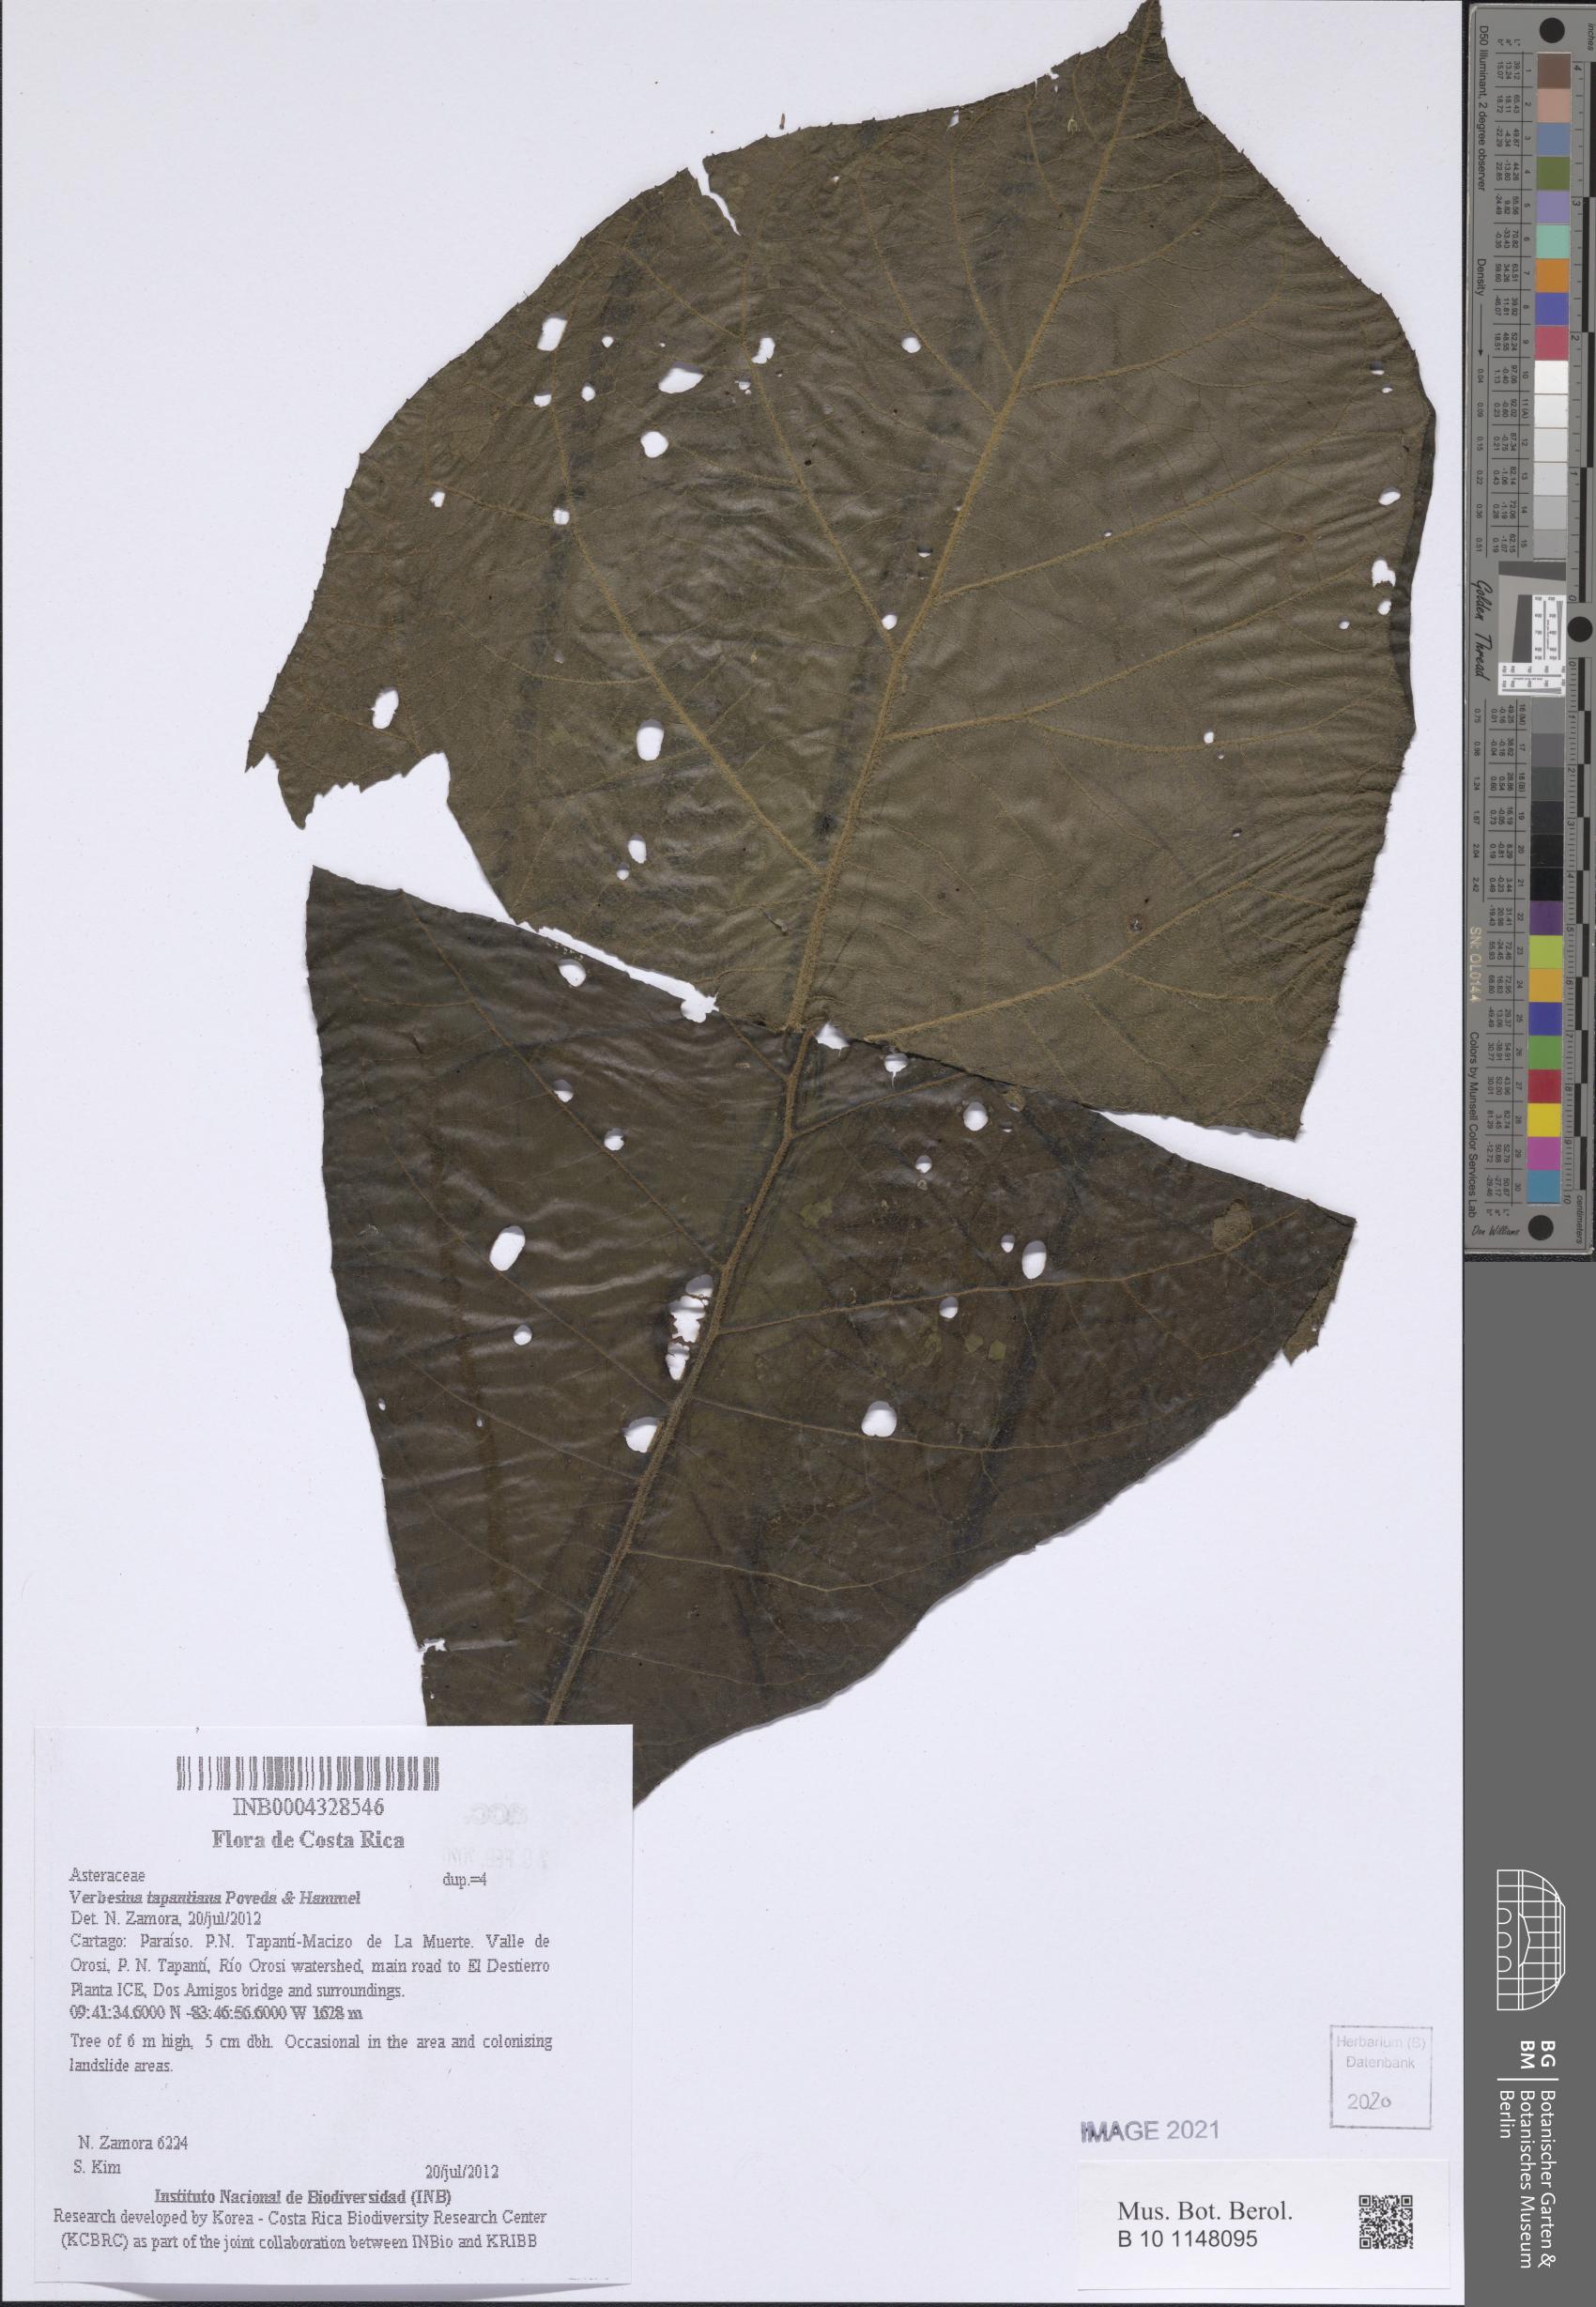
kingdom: Plantae
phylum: Tracheophyta
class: Magnoliopsida
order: Asterales
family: Asteraceae
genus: Verbesina
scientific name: Verbesina tapantiana
